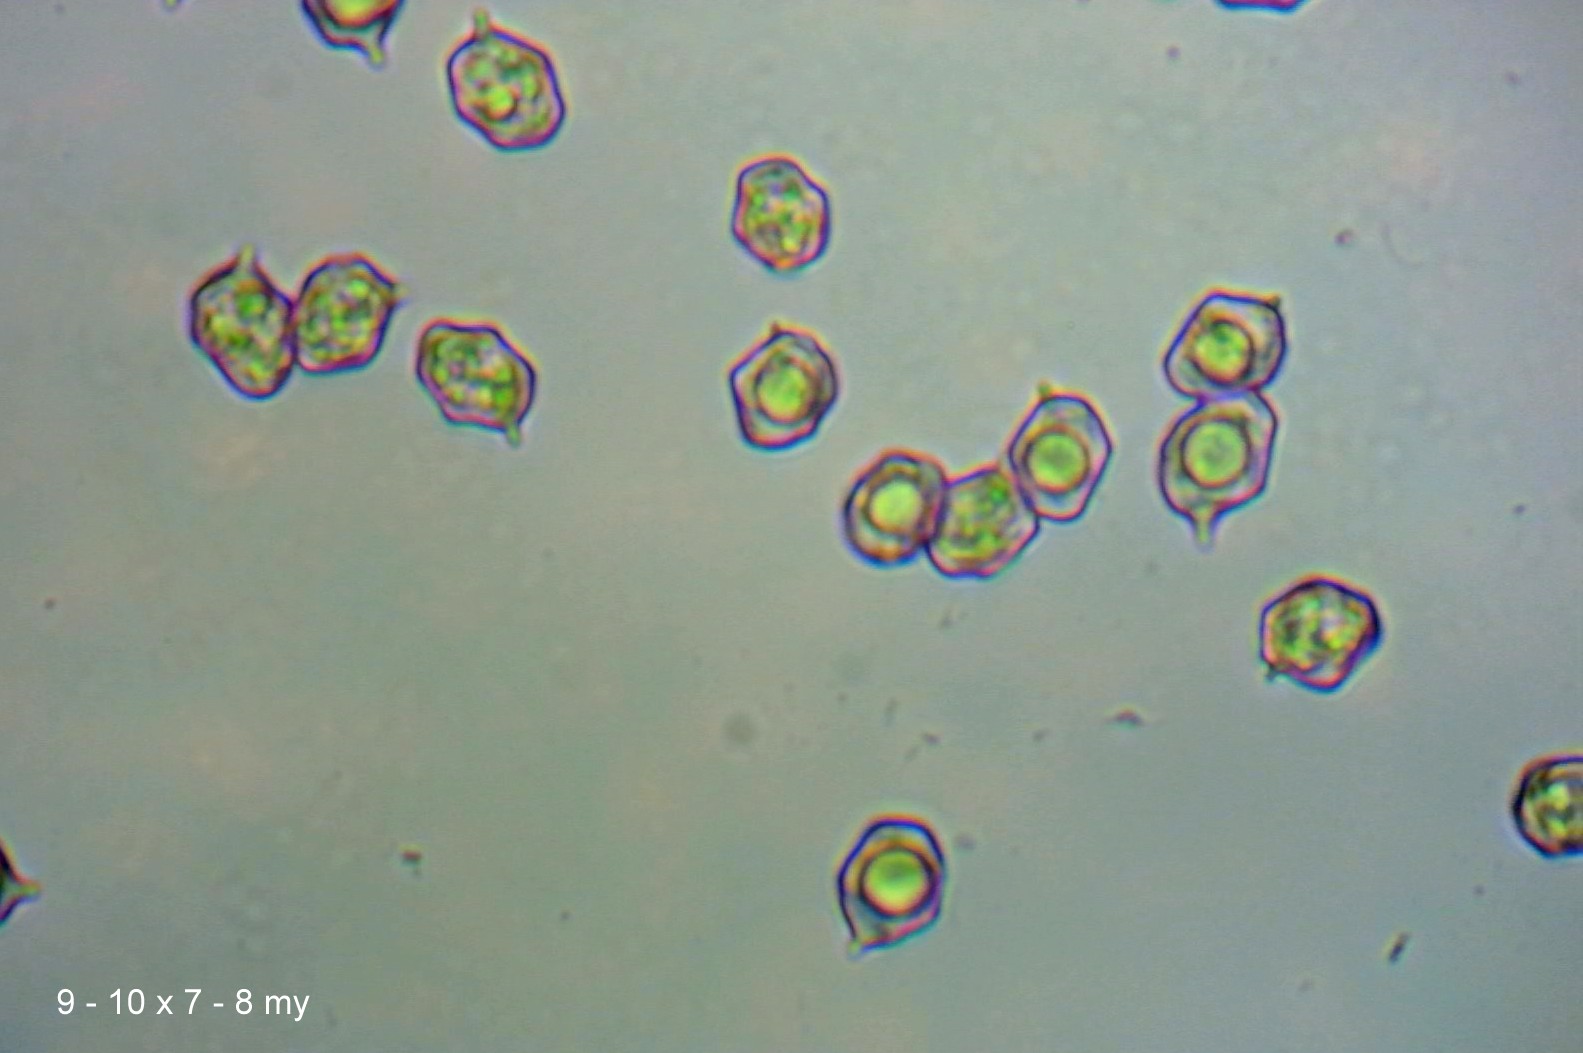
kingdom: Fungi
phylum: Basidiomycota
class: Agaricomycetes
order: Agaricales
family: Entolomataceae
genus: Entoloma
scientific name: Entoloma sericellum
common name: silkehvid rødblad
